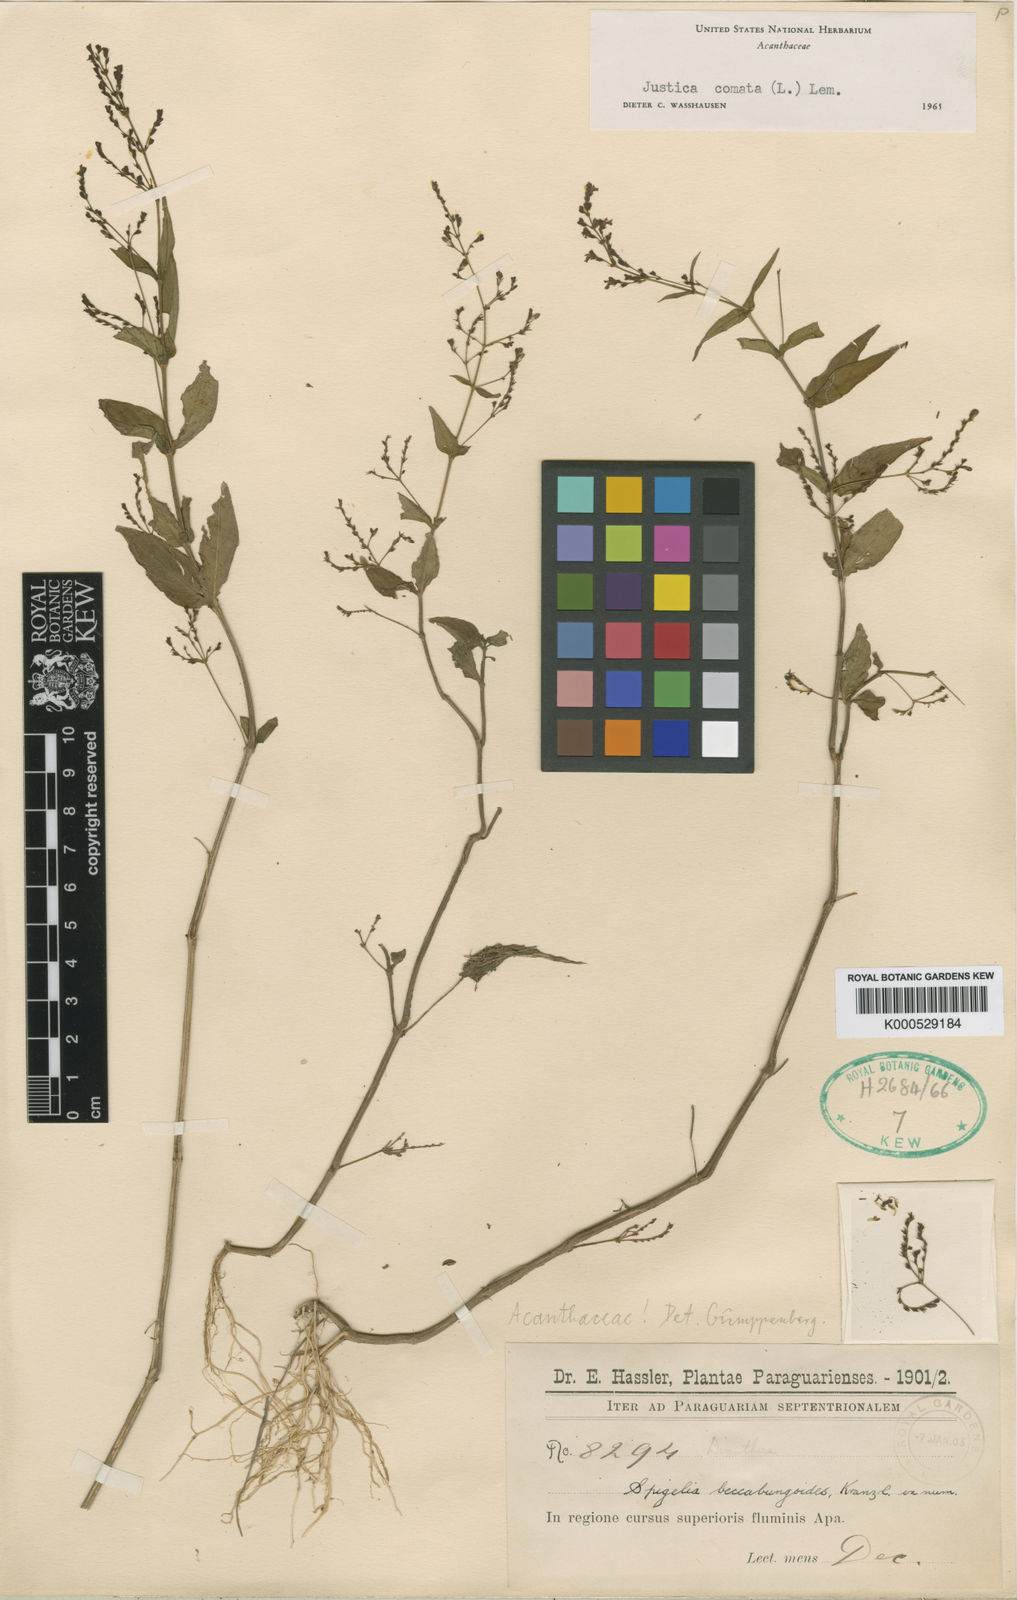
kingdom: Plantae
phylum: Tracheophyta
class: Magnoliopsida
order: Lamiales
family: Acanthaceae
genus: Dianthera
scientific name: Dianthera comata
